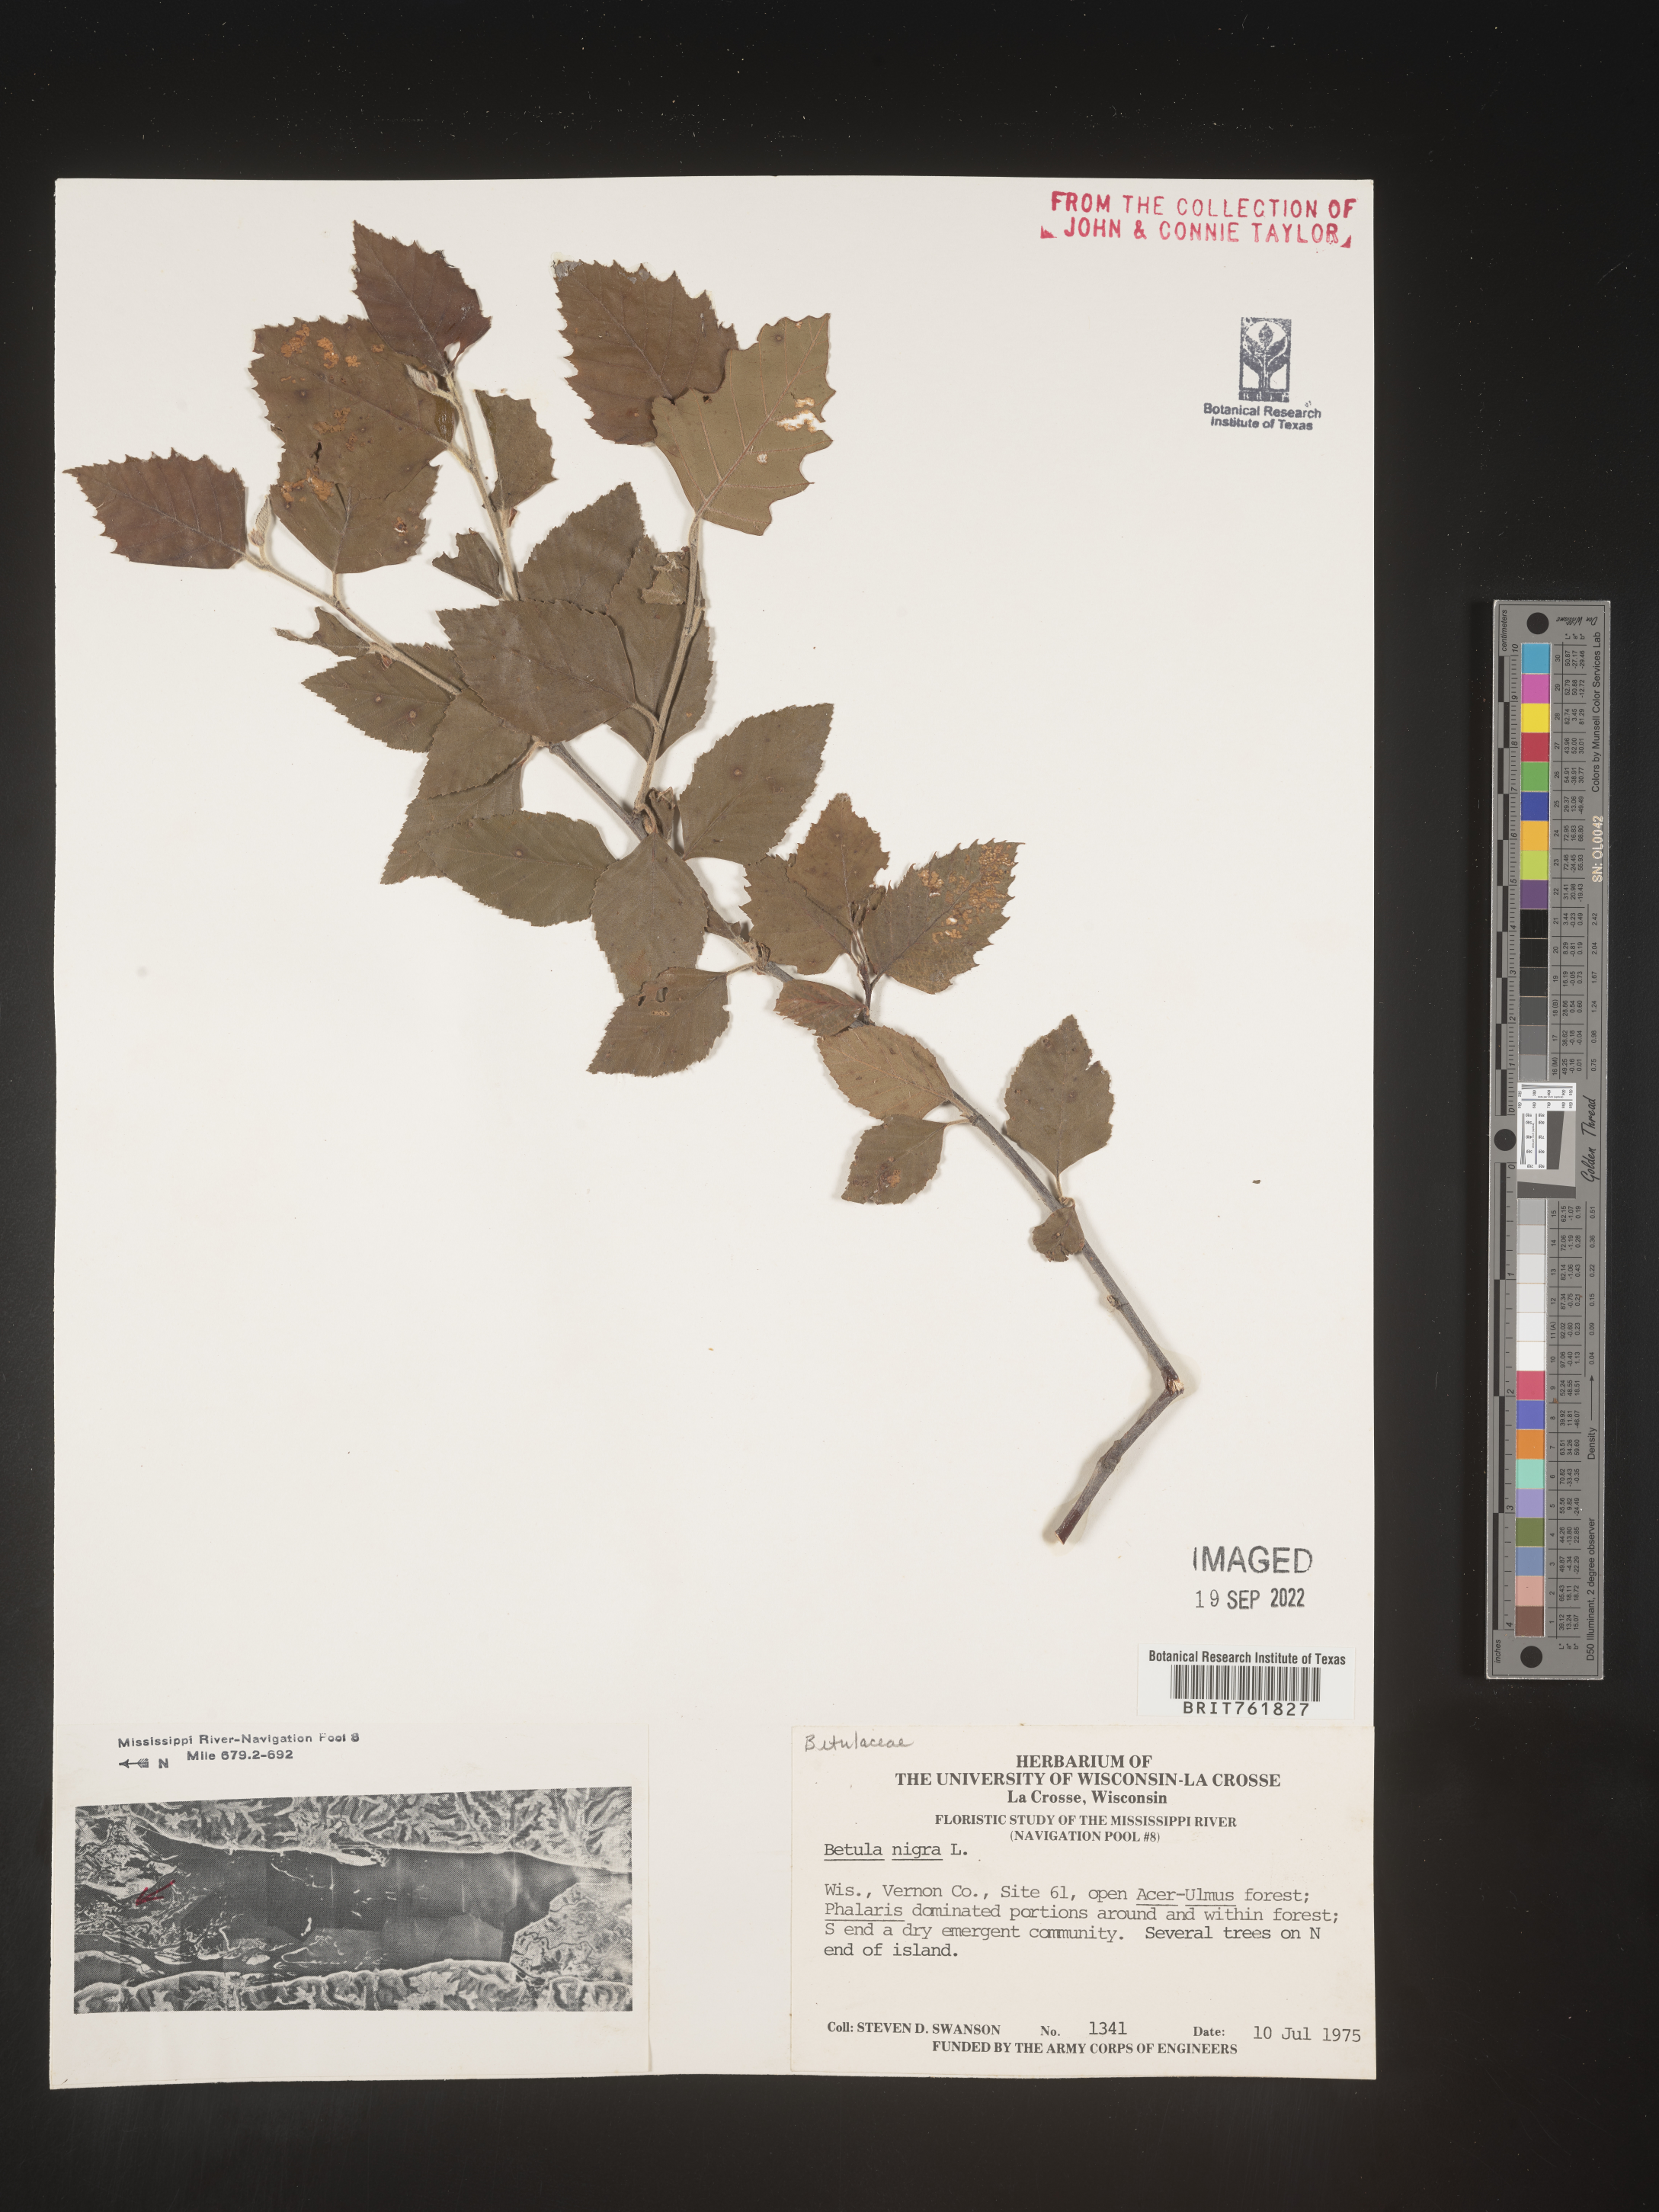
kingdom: Plantae
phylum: Tracheophyta
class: Magnoliopsida
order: Fagales
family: Betulaceae
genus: Betula
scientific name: Betula nigra
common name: Black birch
